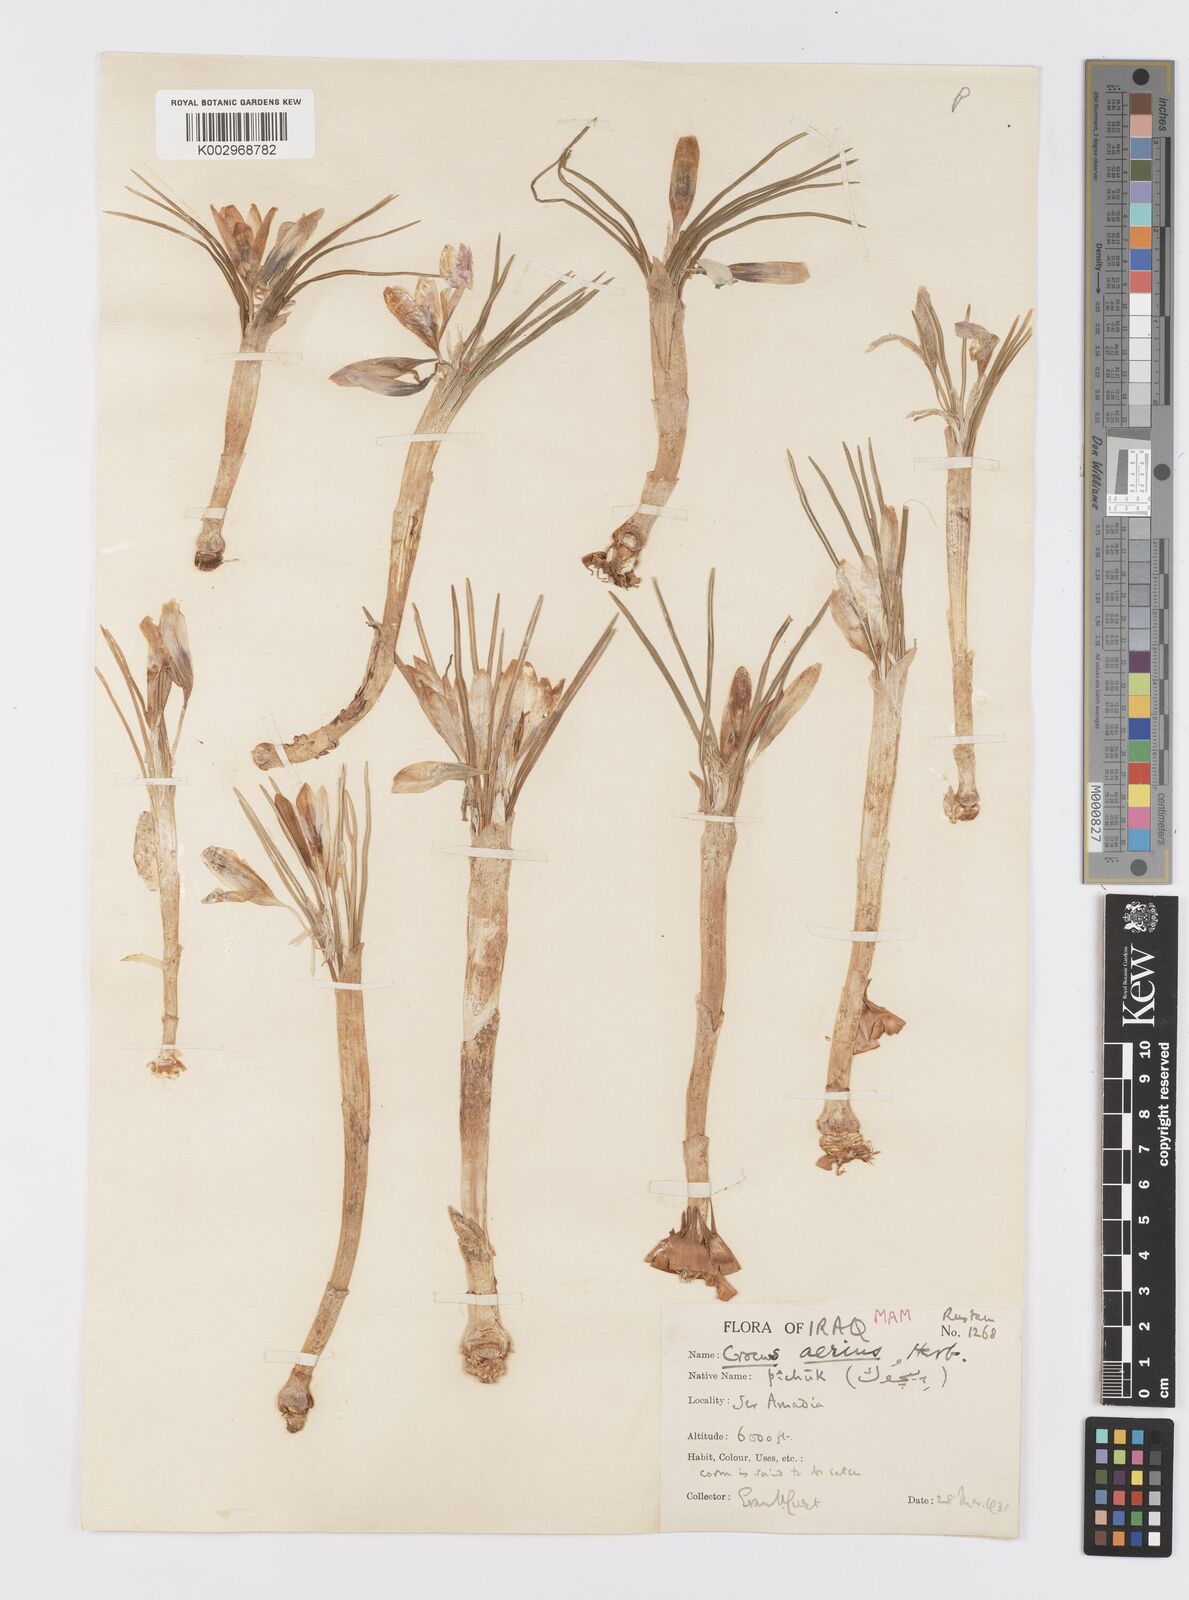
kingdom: Plantae
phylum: Tracheophyta
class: Liliopsida
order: Asparagales
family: Iridaceae
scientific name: Iridaceae
